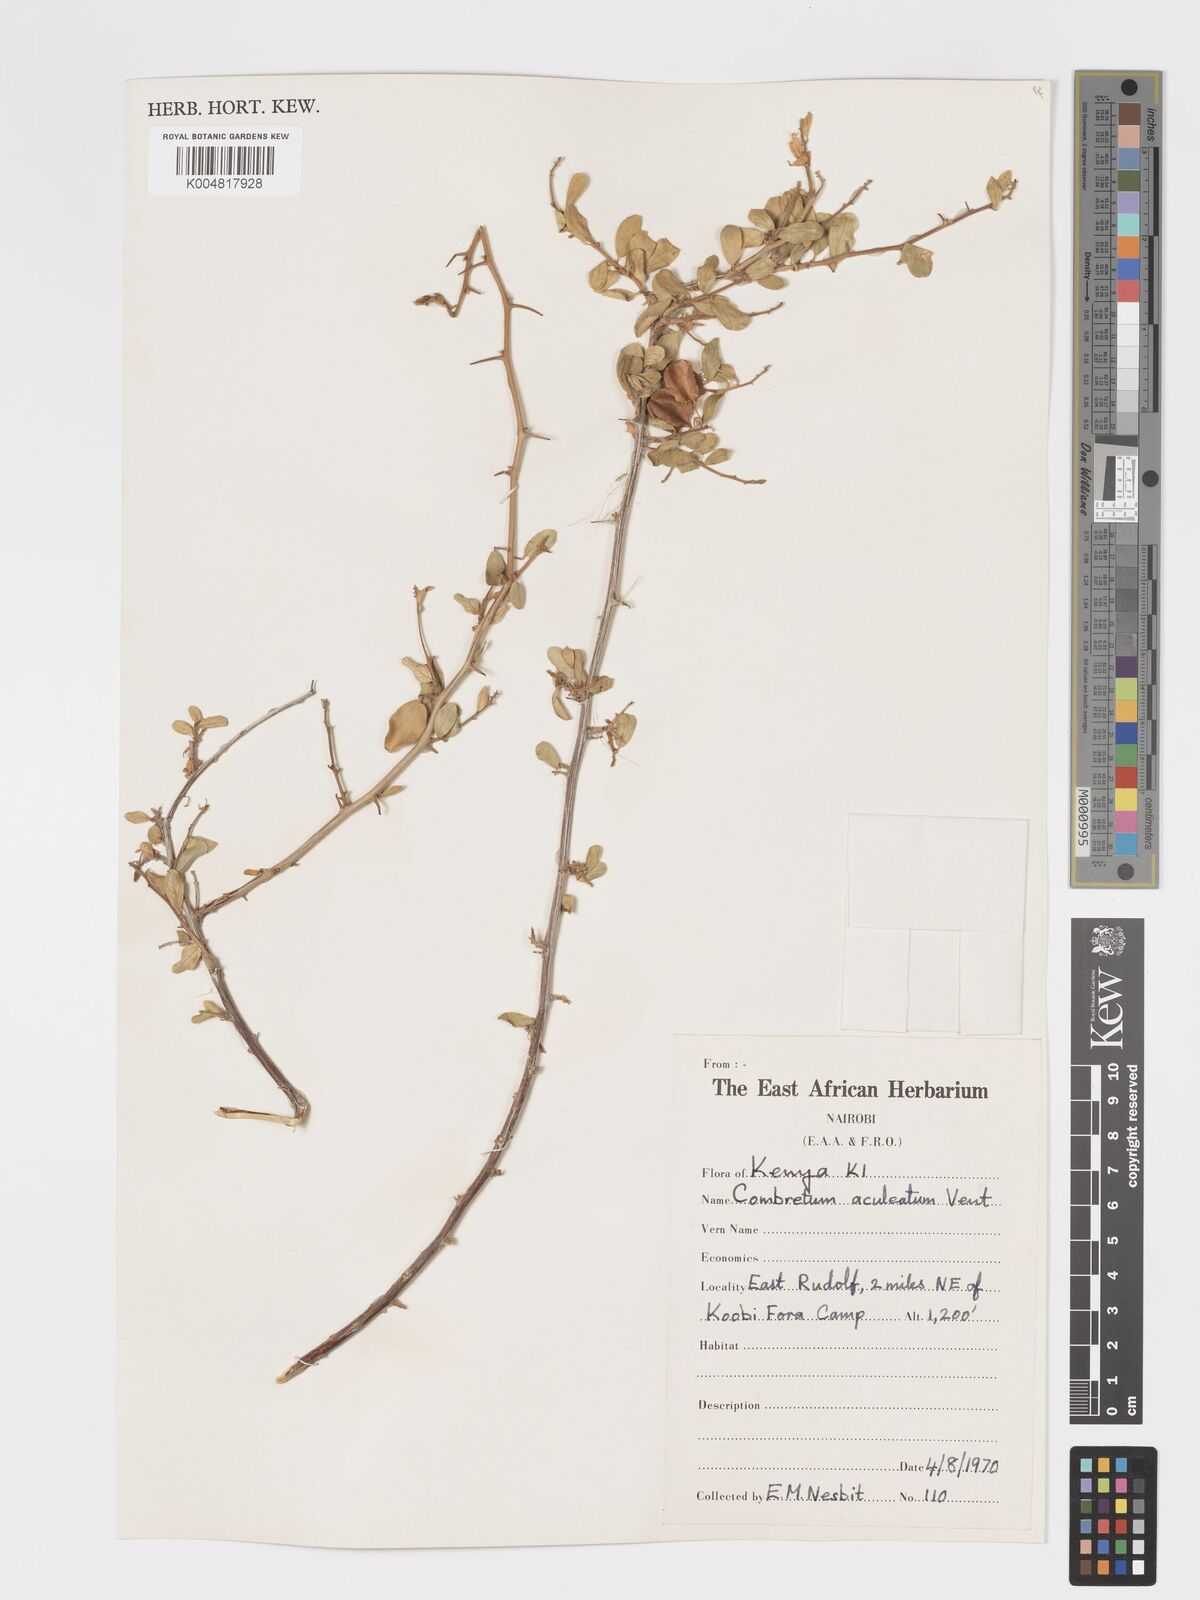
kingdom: Plantae
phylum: Tracheophyta
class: Magnoliopsida
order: Myrtales
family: Combretaceae
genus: Combretum
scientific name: Combretum aculeatum
